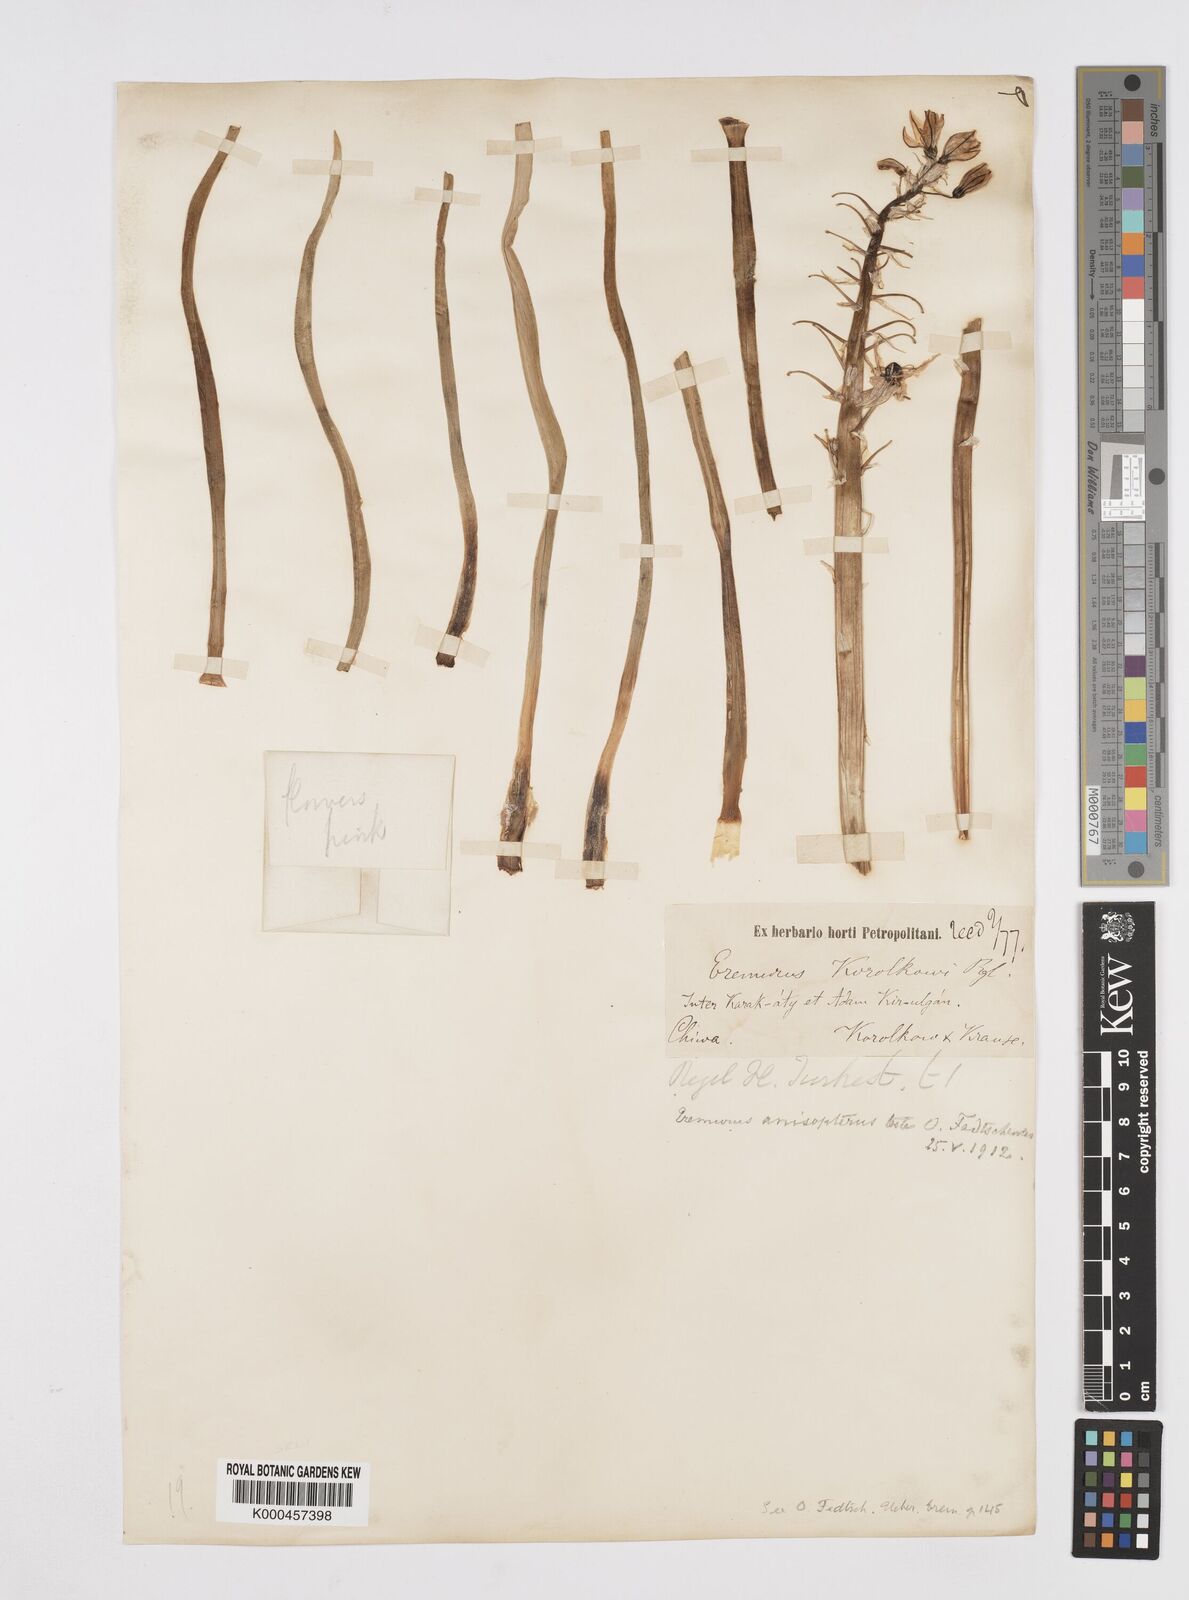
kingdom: Plantae
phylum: Tracheophyta
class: Liliopsida
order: Asparagales
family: Asphodelaceae
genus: Eremurus
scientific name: Eremurus anisopterus
